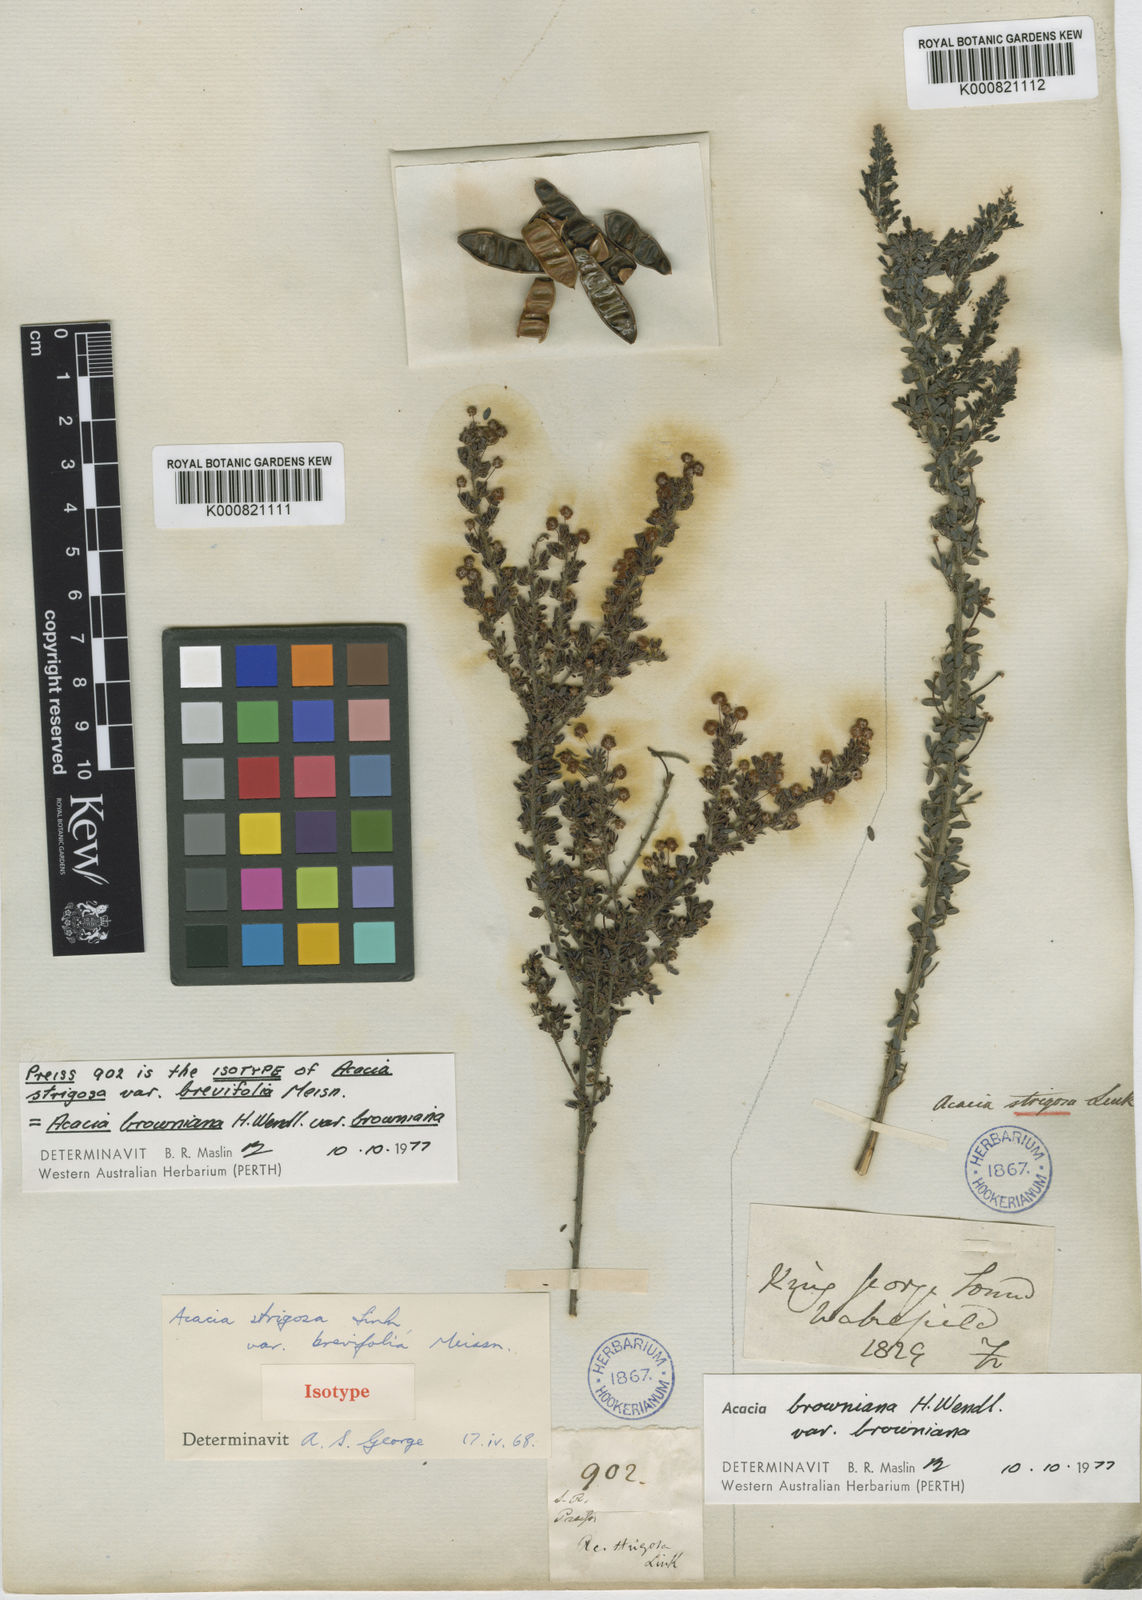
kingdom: Plantae
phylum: Tracheophyta
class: Magnoliopsida
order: Fabales
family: Fabaceae
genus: Acacia
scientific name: Acacia browniana
